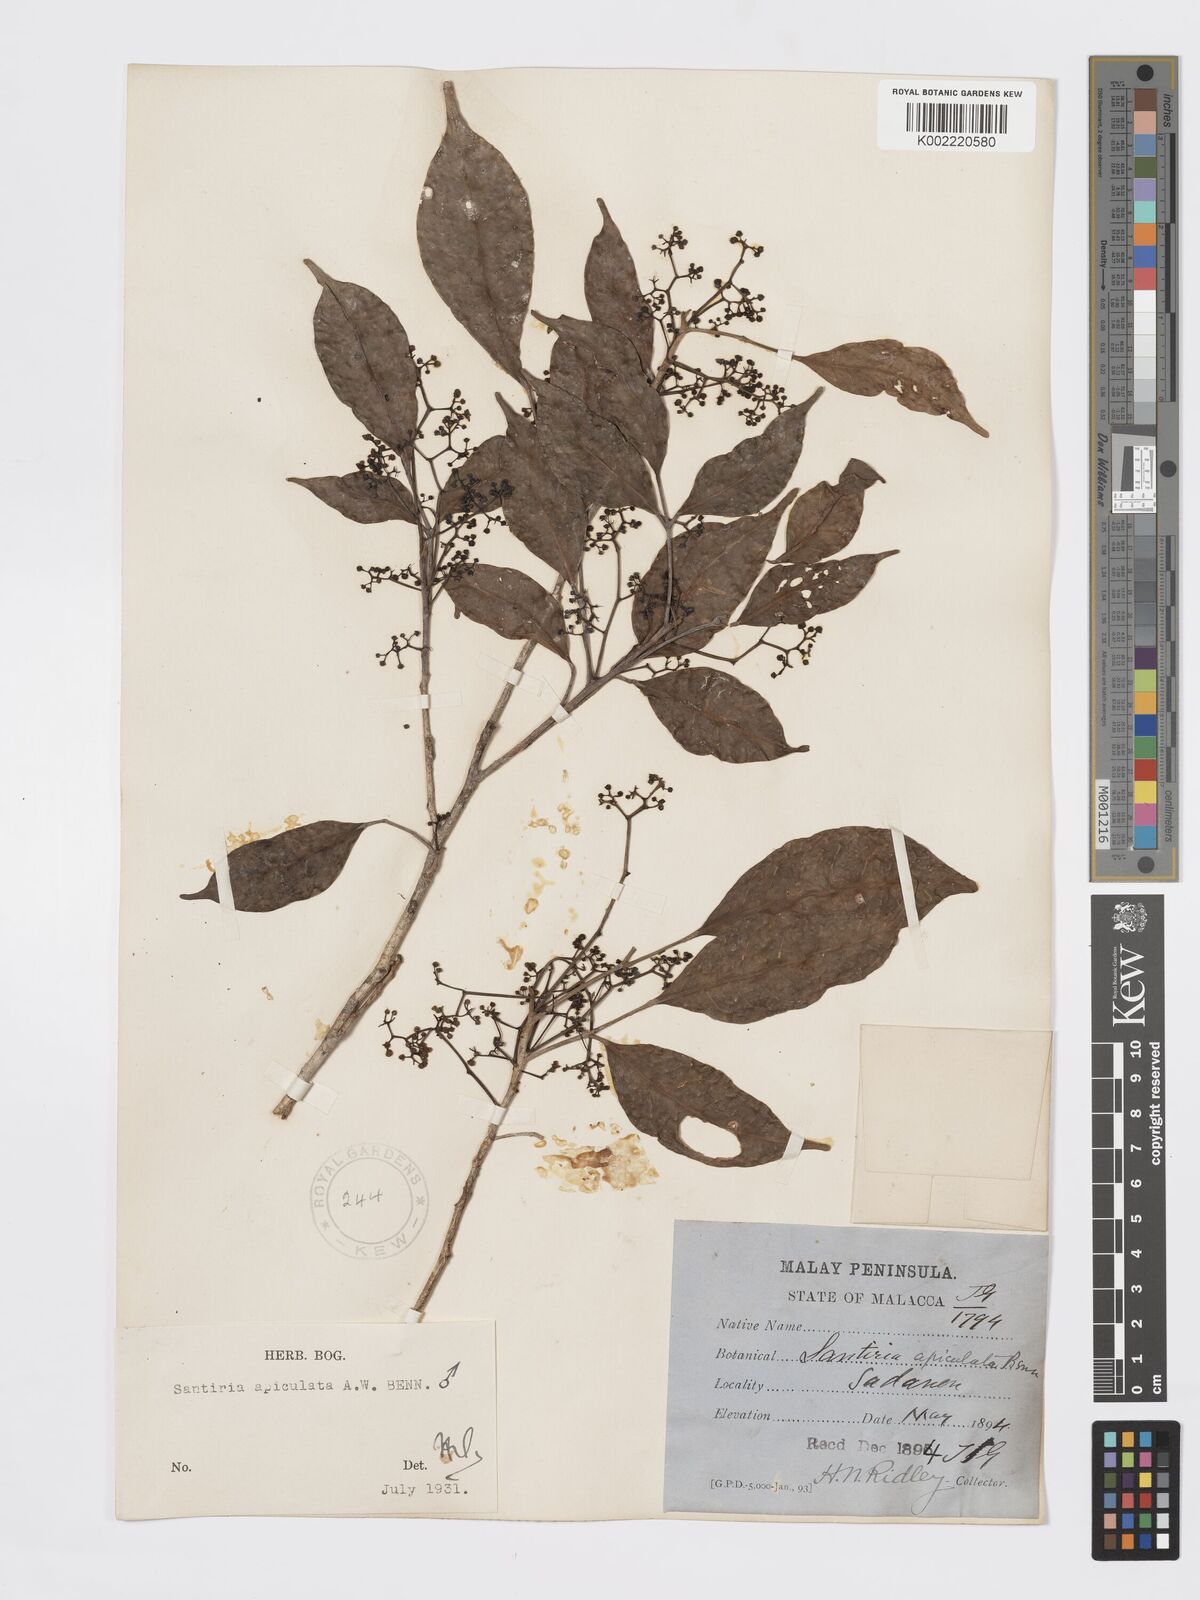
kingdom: Plantae
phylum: Tracheophyta
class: Magnoliopsida
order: Sapindales
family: Burseraceae
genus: Santiria
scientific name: Santiria apiculata
